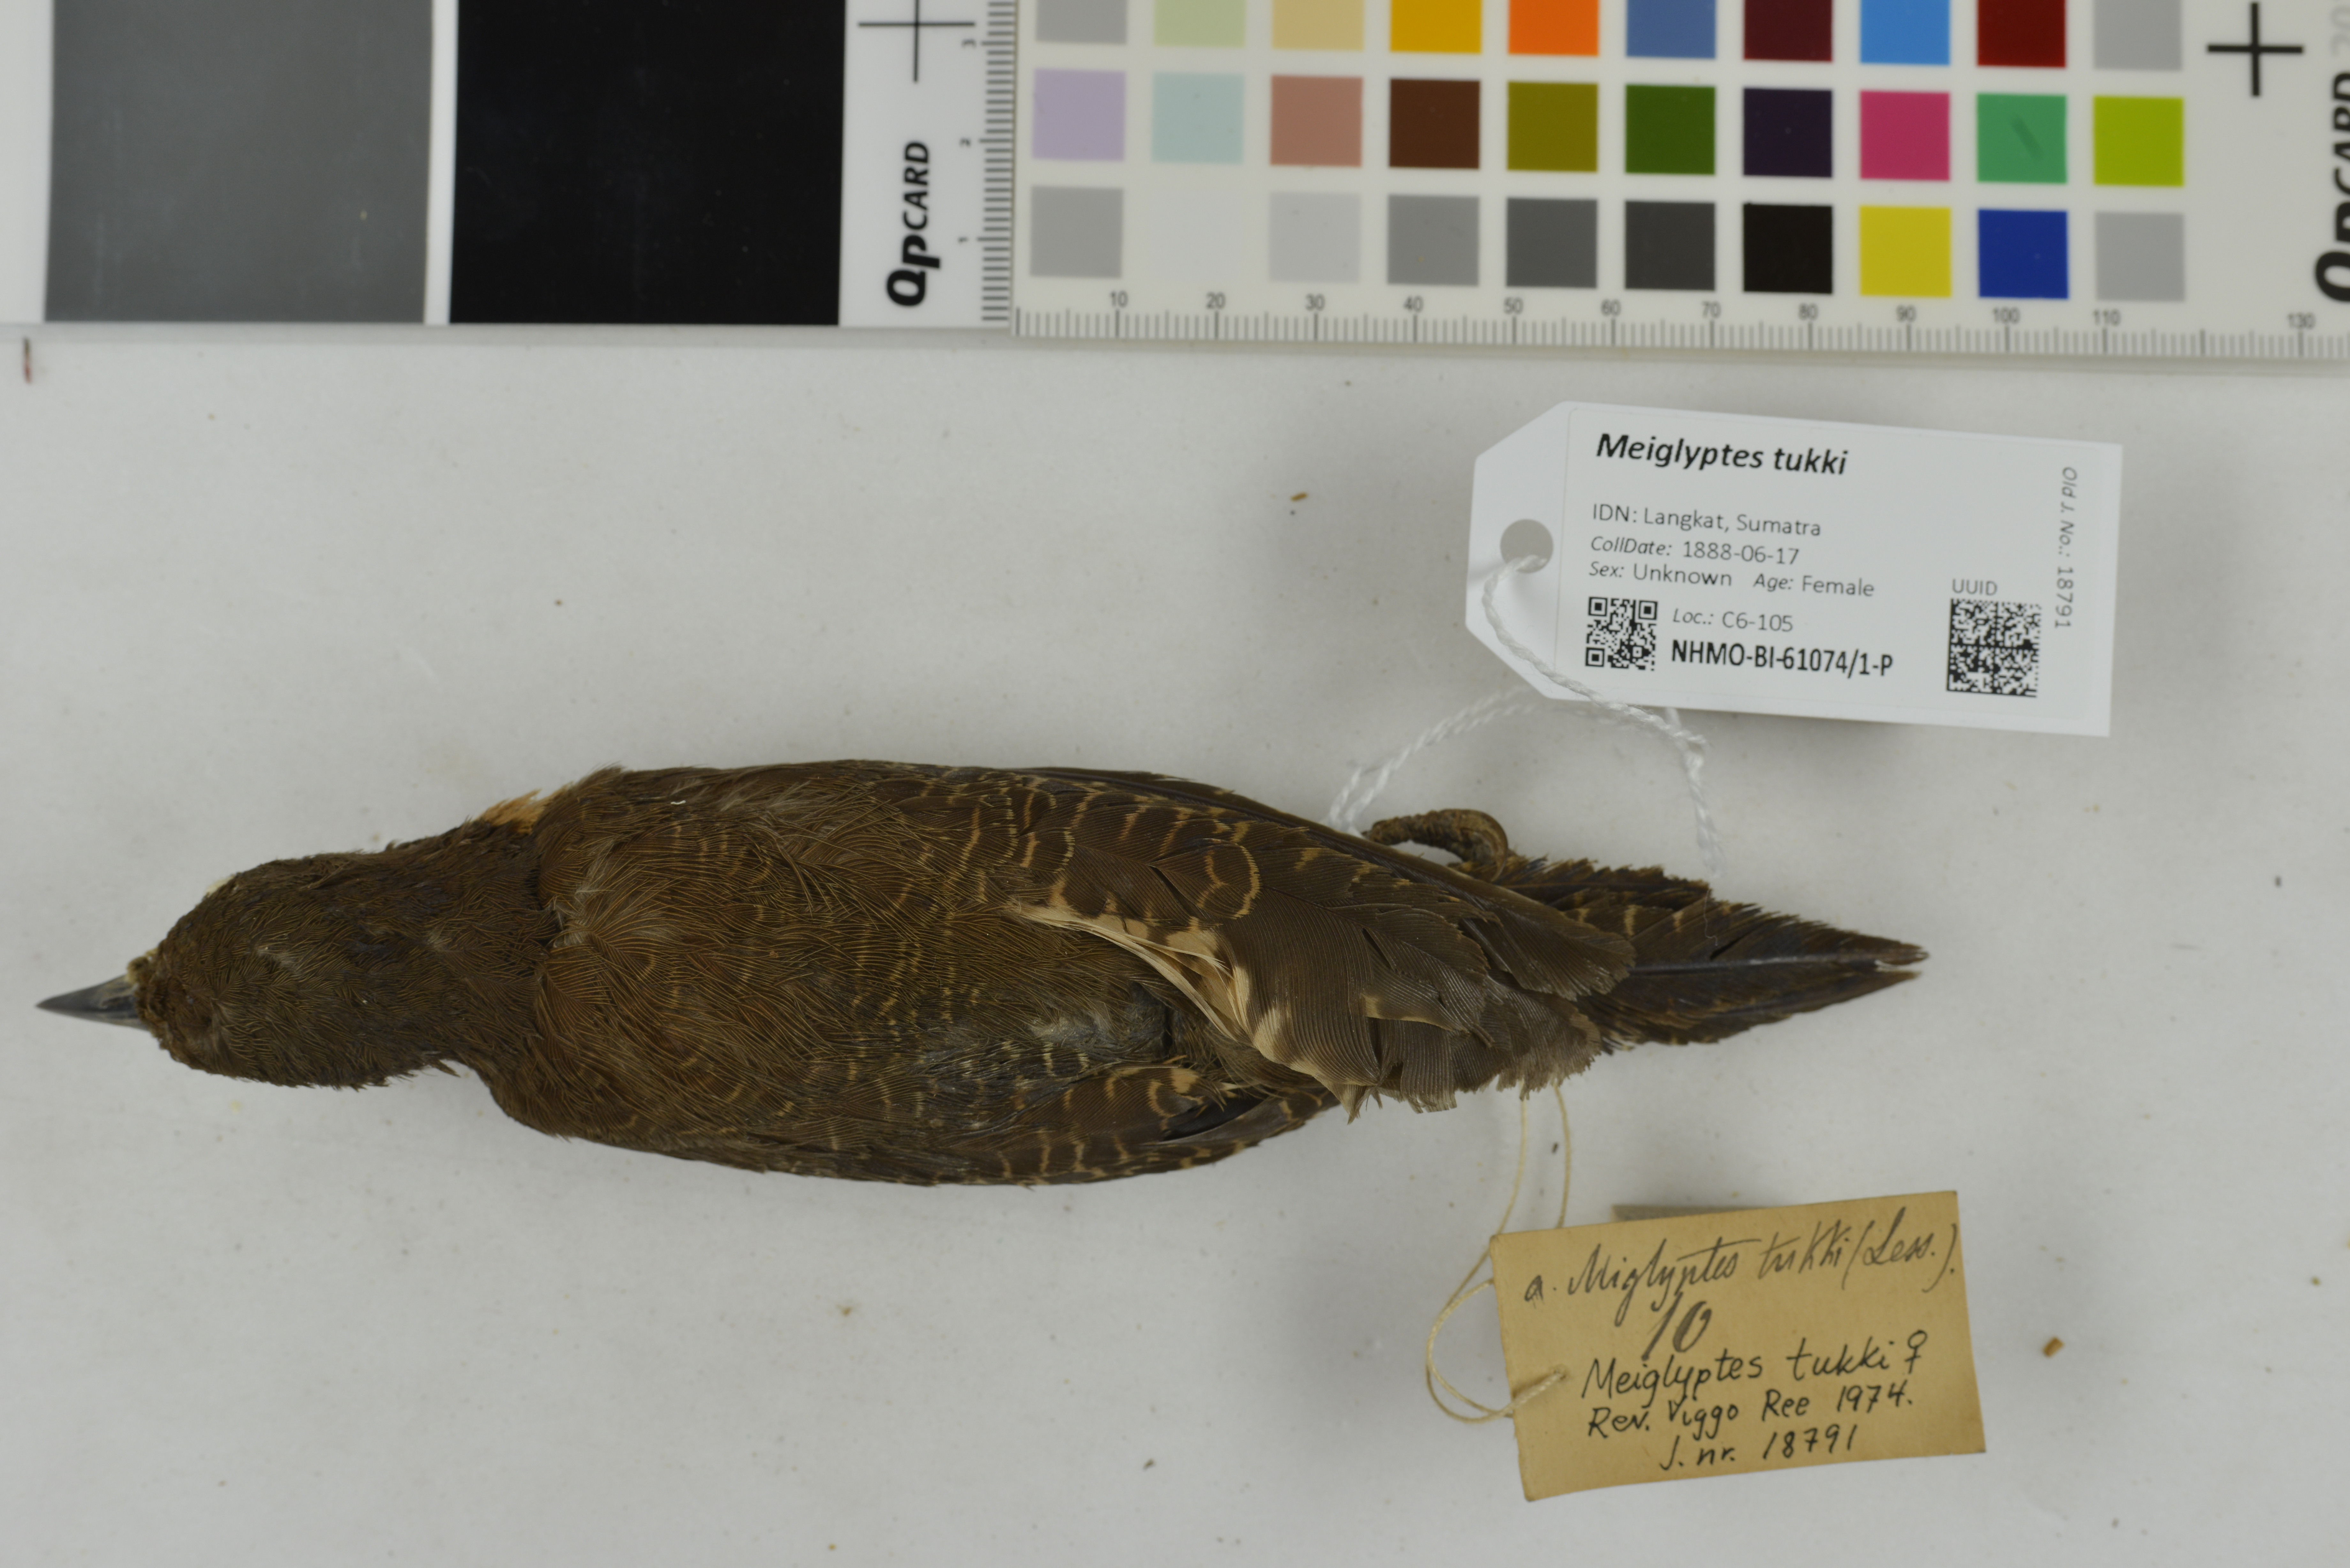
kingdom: Animalia
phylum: Chordata
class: Aves
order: Piciformes
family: Picidae
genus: Meiglyptes
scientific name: Meiglyptes tukki
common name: Buff-necked woodpecker
